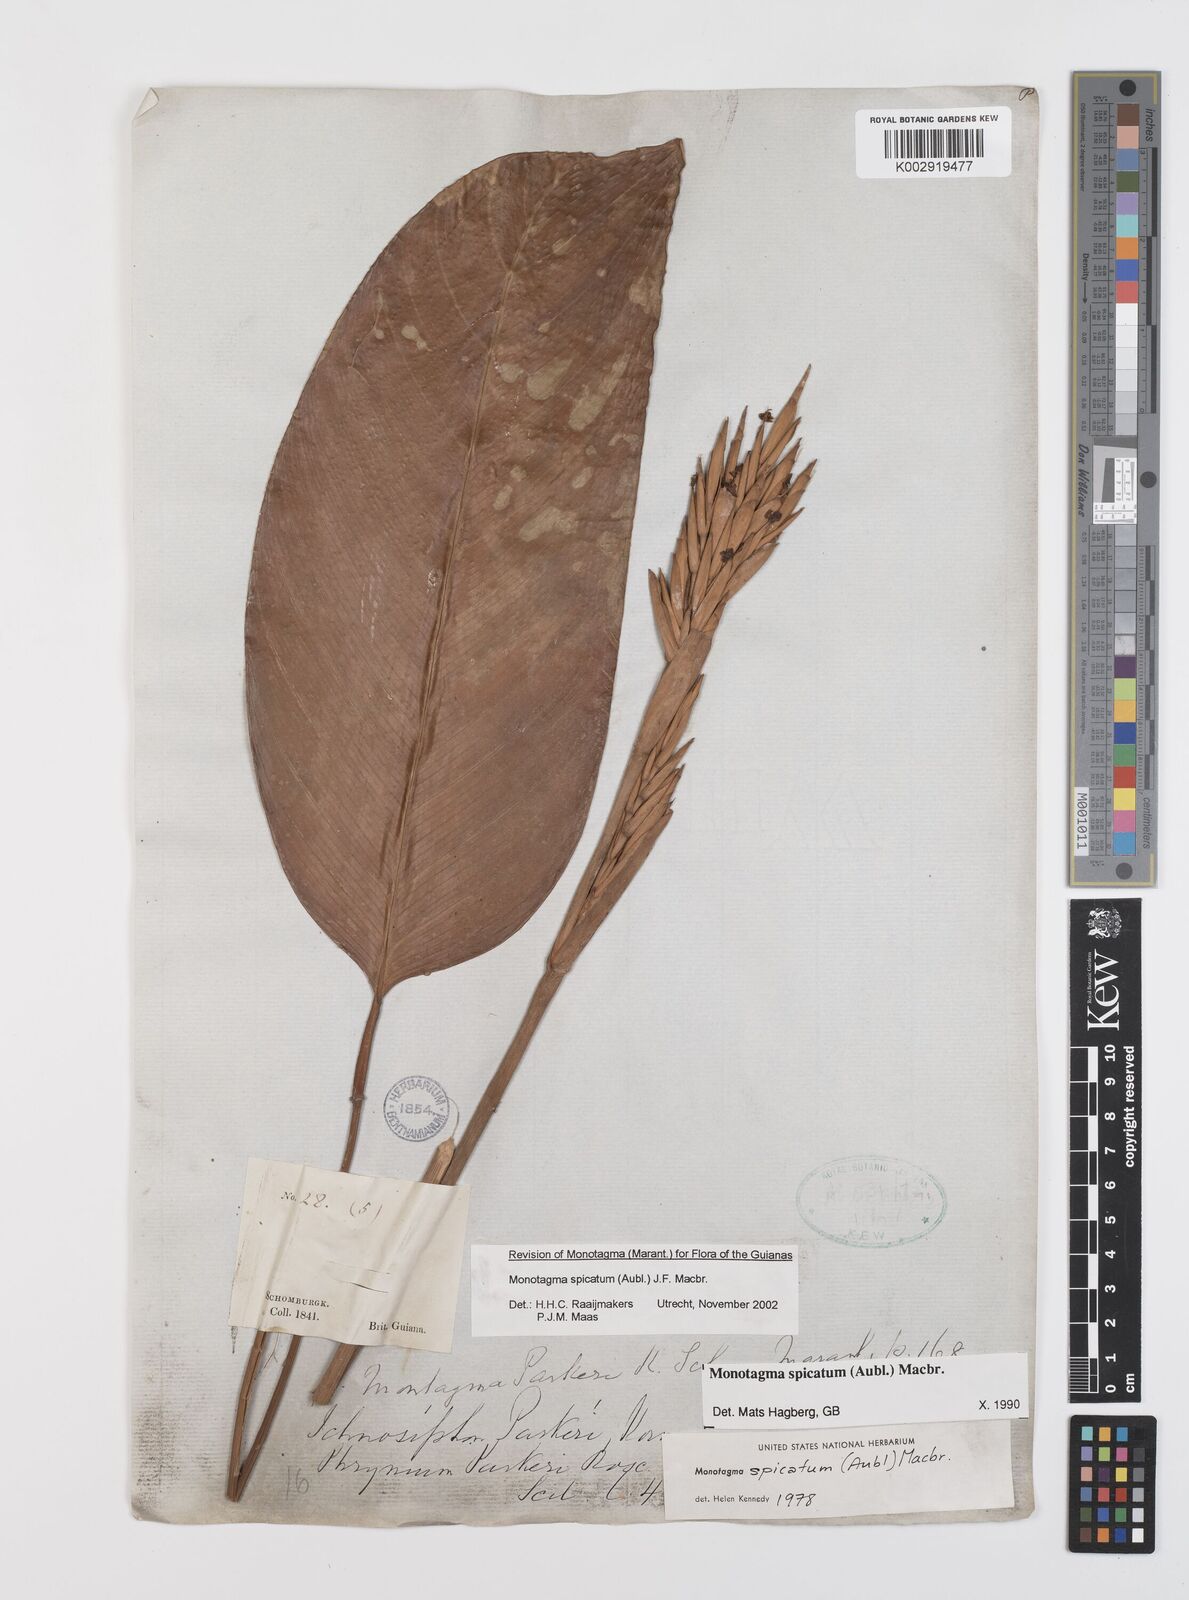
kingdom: Plantae
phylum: Tracheophyta
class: Liliopsida
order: Zingiberales
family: Marantaceae
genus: Monotagma
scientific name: Monotagma spicatum
